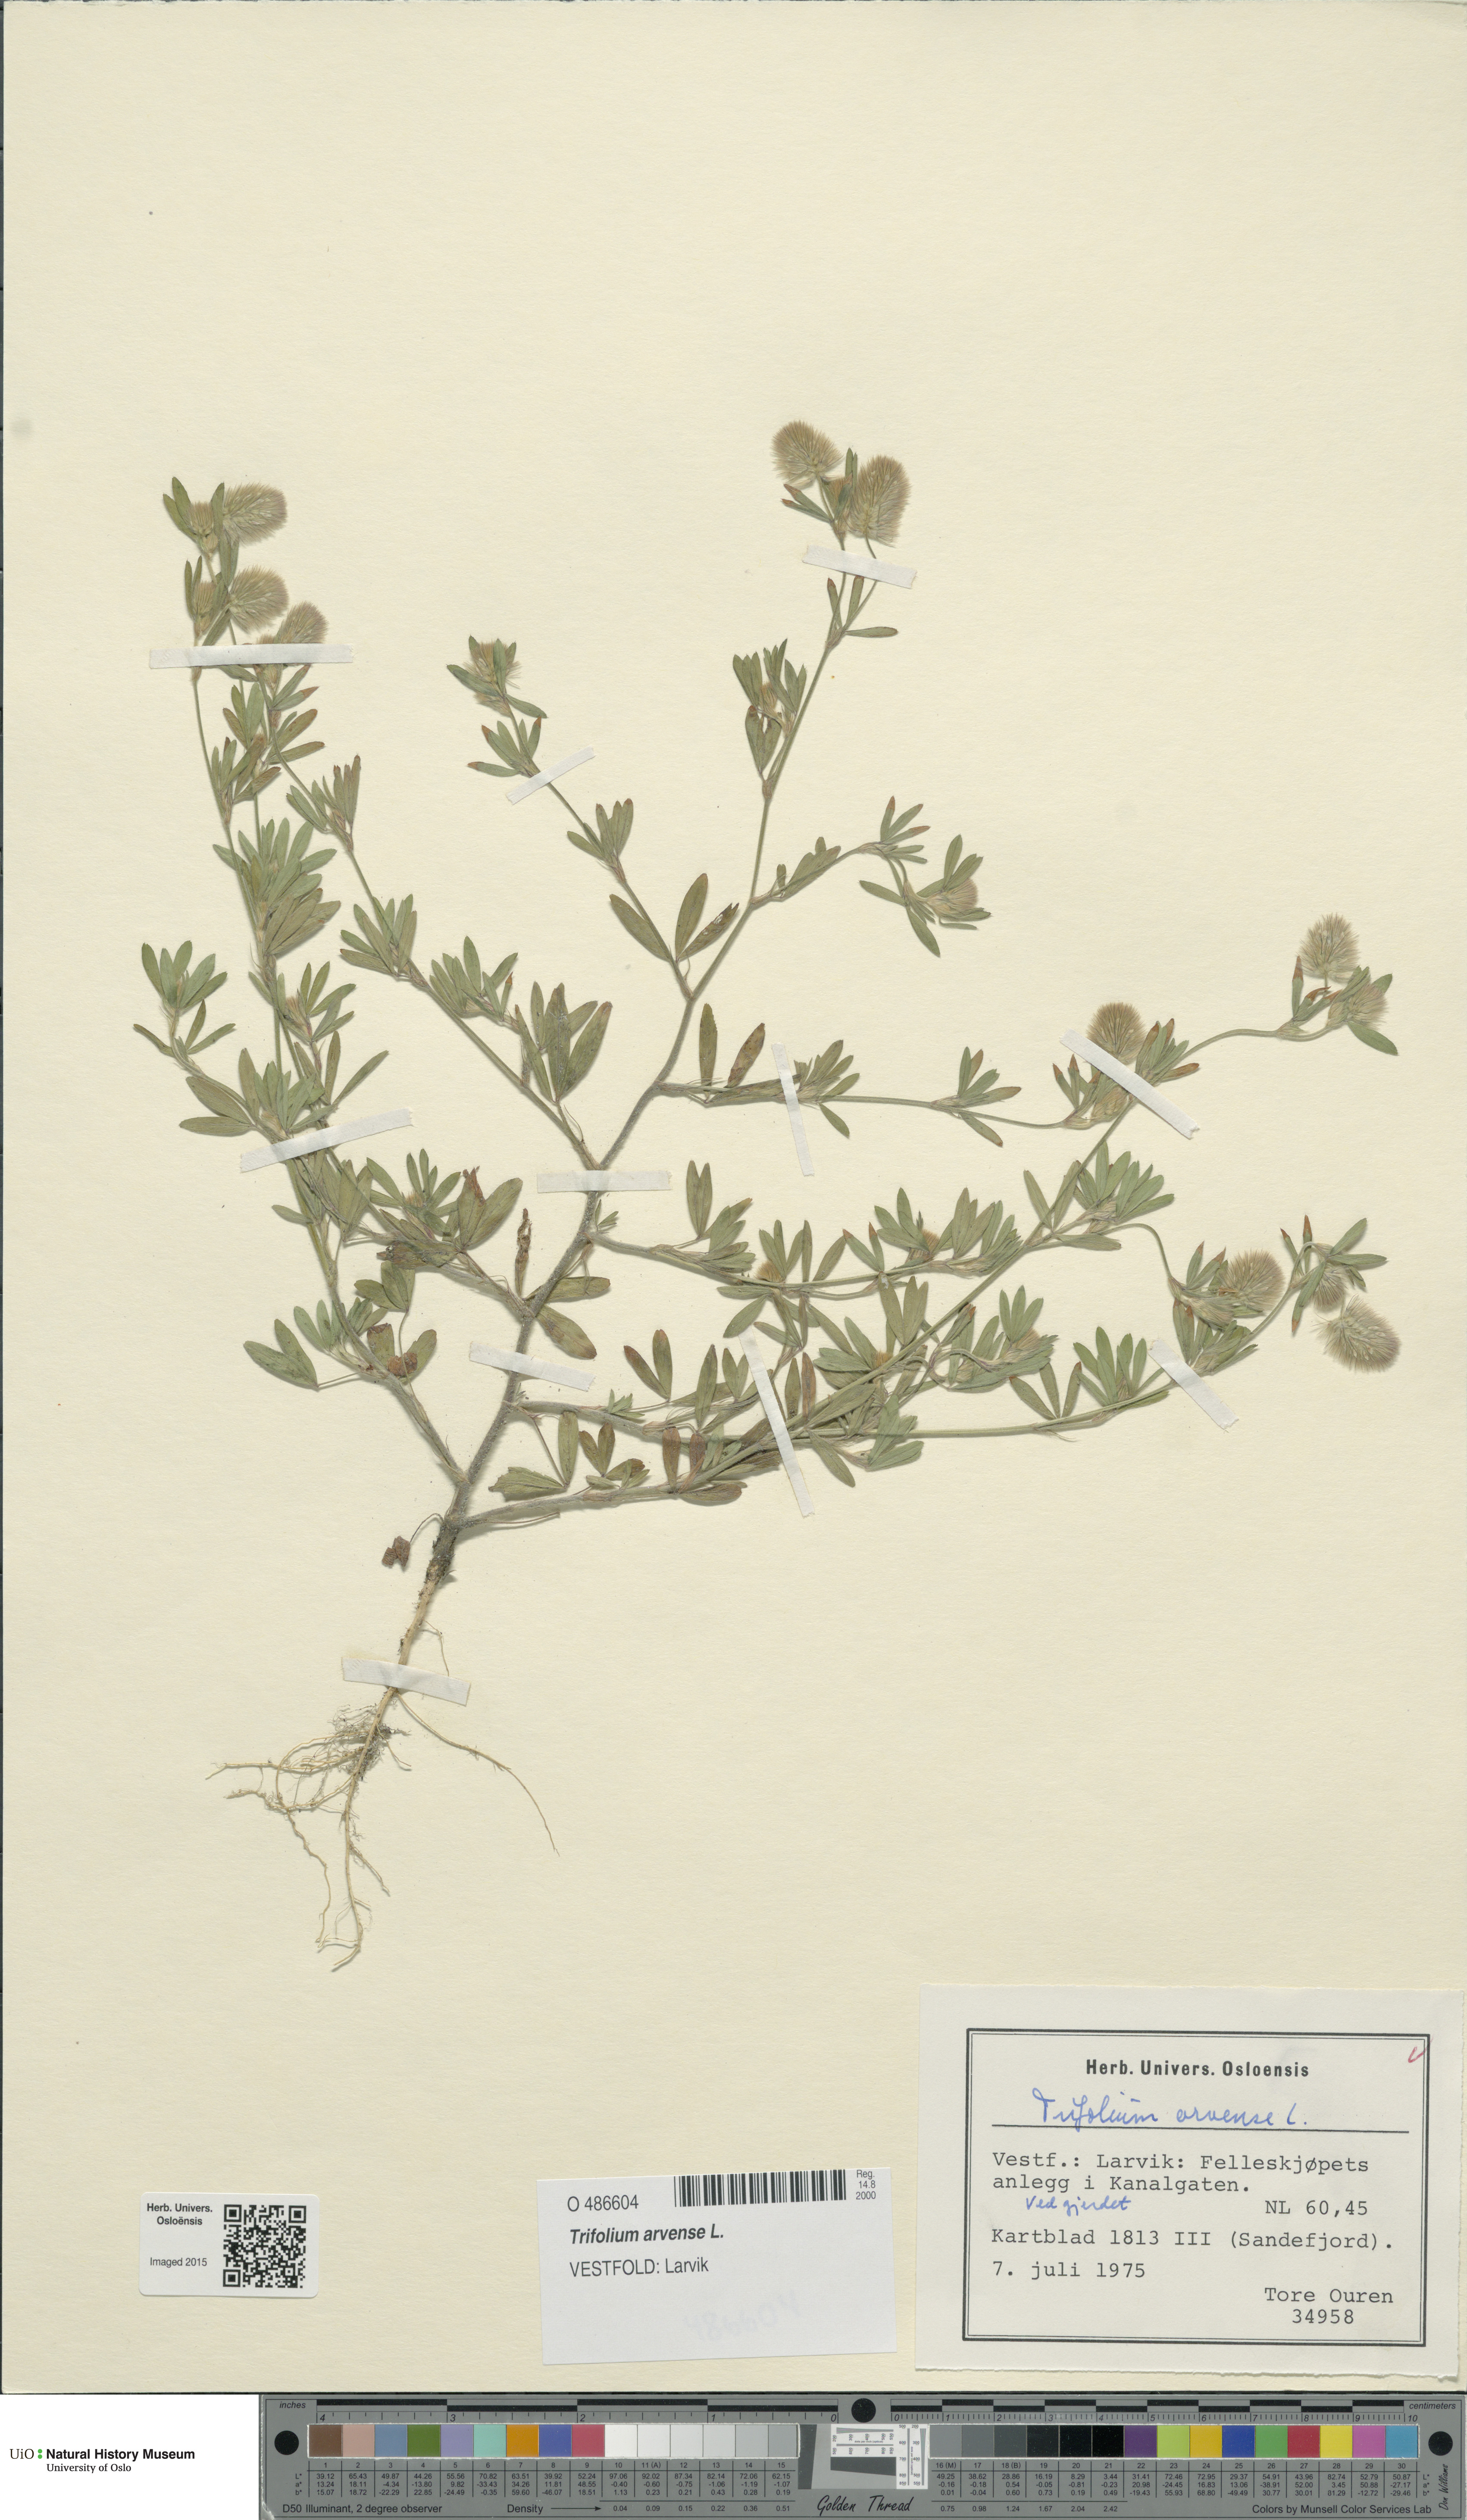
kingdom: Plantae
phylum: Tracheophyta
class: Magnoliopsida
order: Fabales
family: Fabaceae
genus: Trifolium
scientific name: Trifolium arvense
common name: Hare's-foot clover
